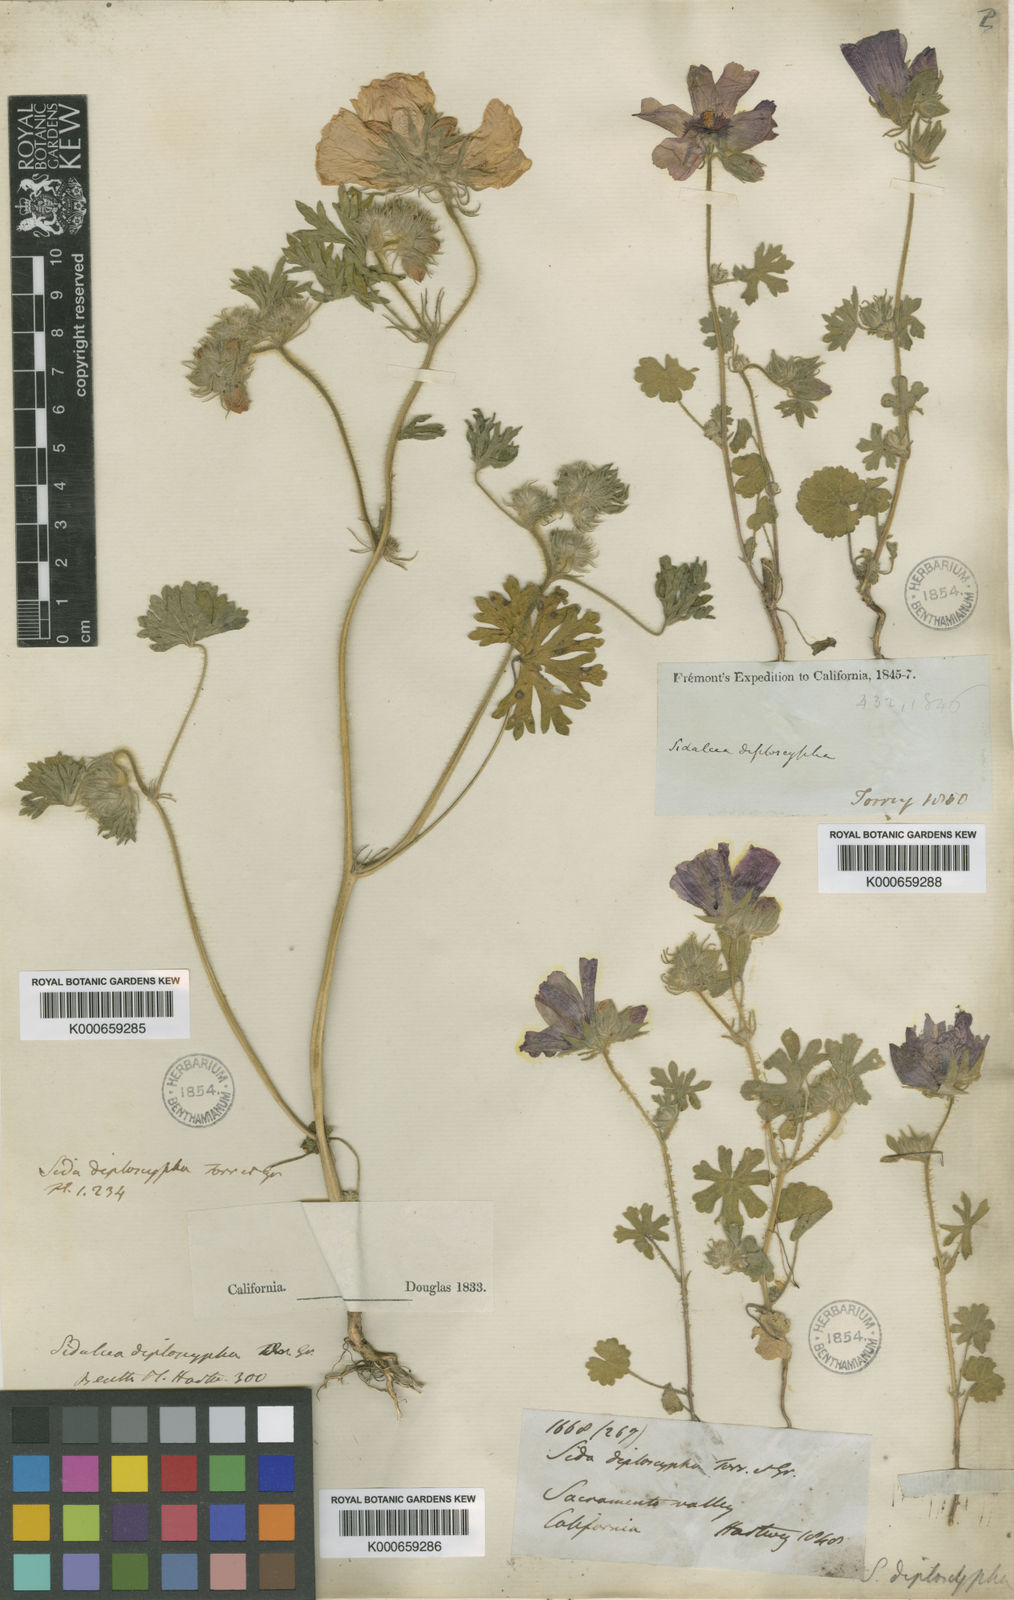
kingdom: Plantae
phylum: Tracheophyta
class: Magnoliopsida
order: Malvales
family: Malvaceae
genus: Sidalcea
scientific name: Sidalcea diploscypha
